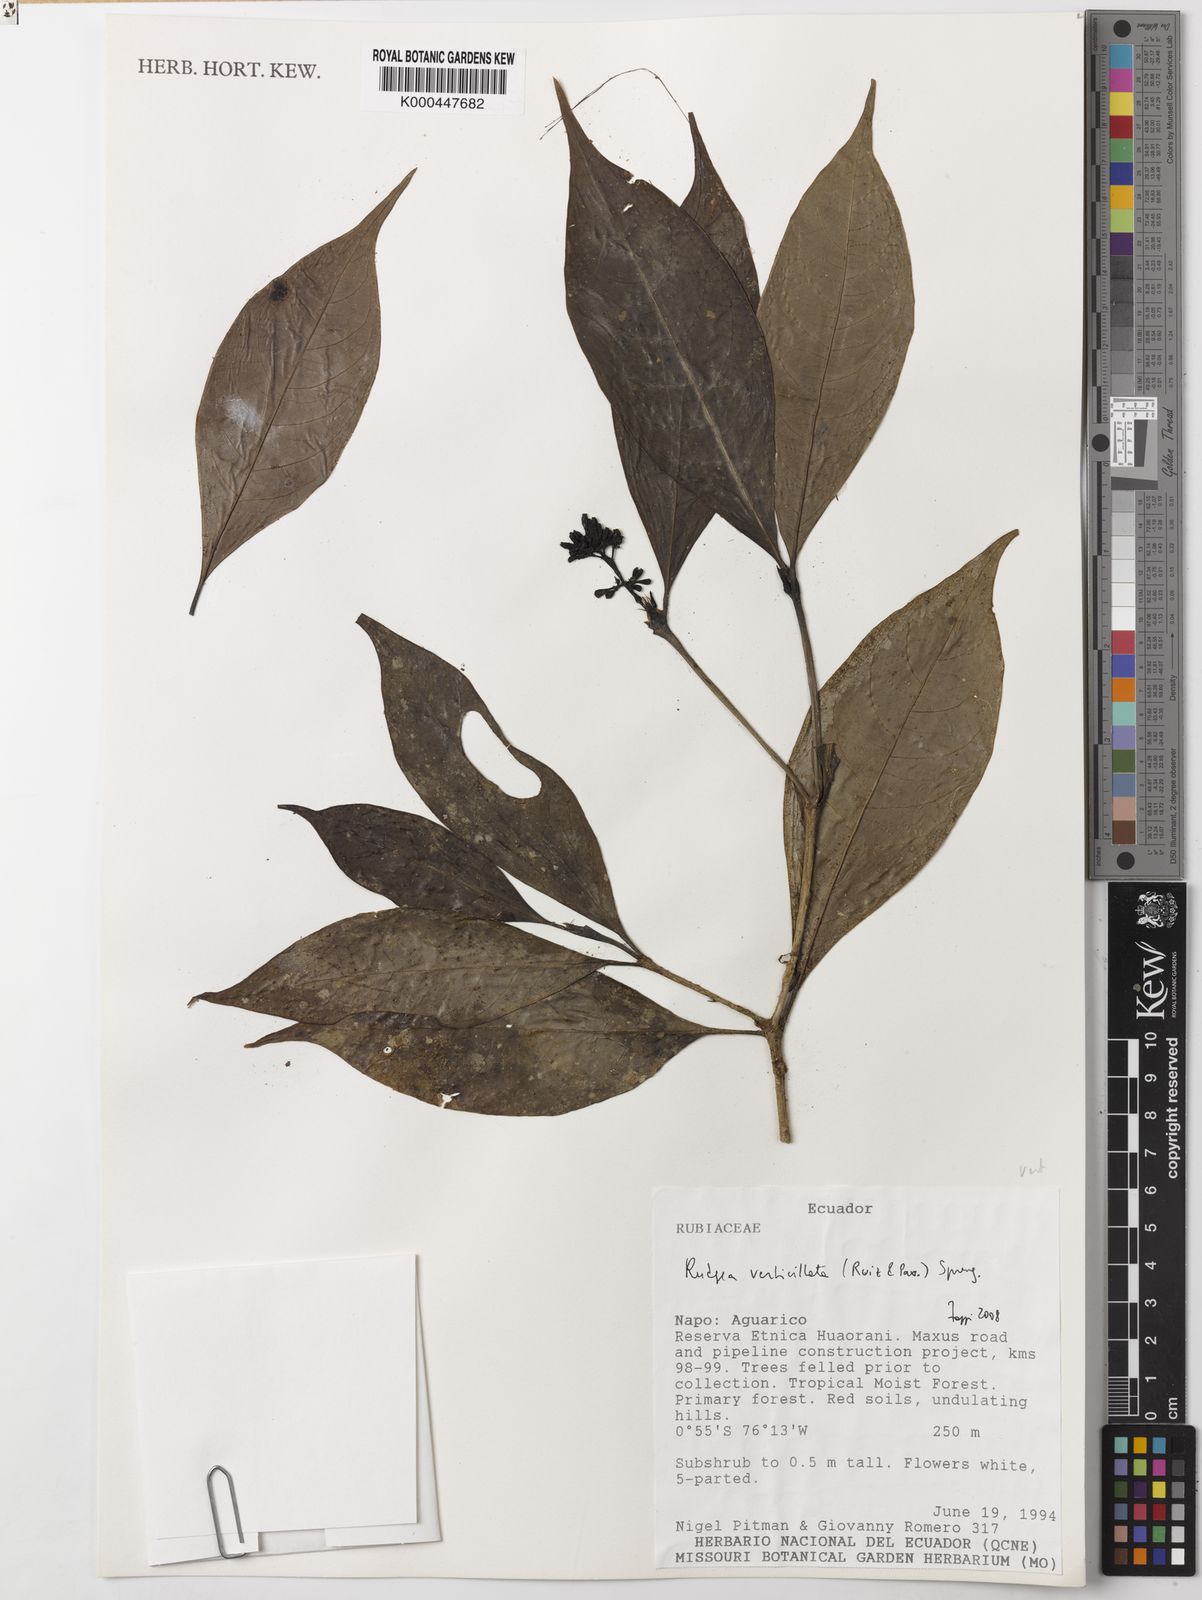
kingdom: Plantae
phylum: Tracheophyta
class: Magnoliopsida
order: Gentianales
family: Rubiaceae
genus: Rudgea
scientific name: Rudgea verticillata
